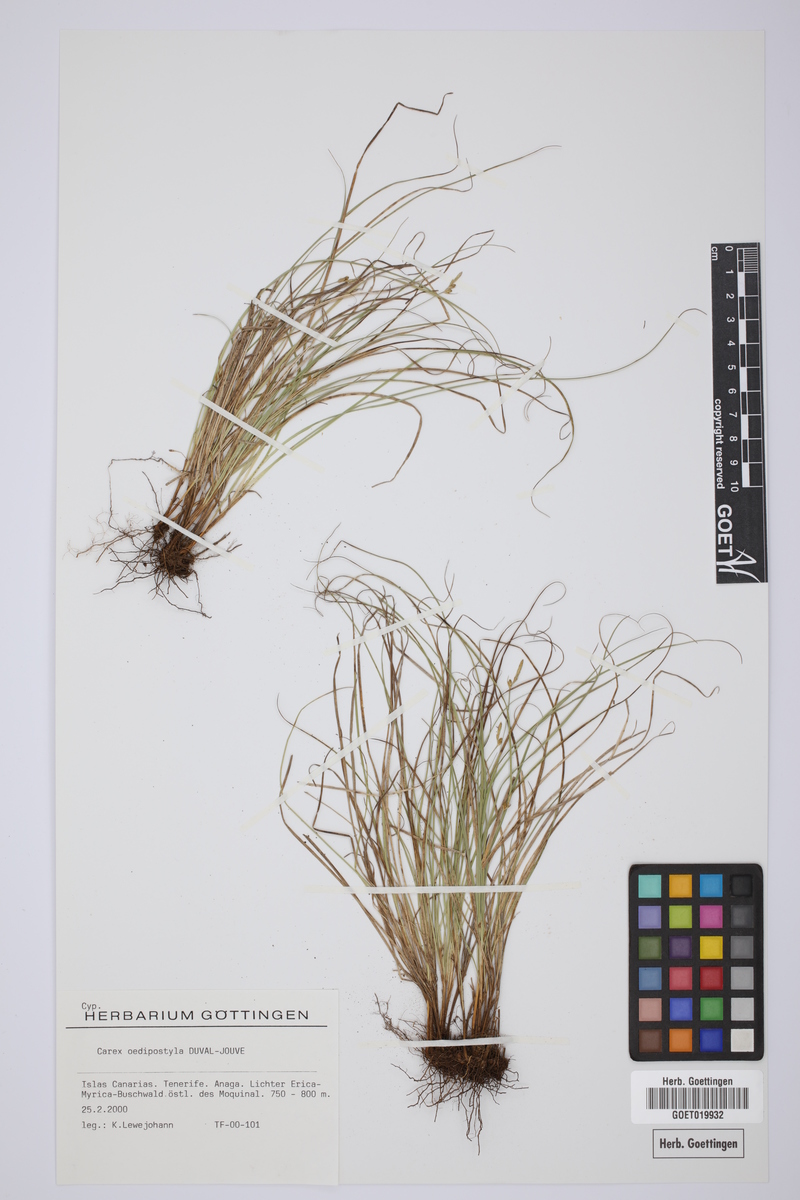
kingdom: Plantae
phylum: Tracheophyta
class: Liliopsida
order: Poales
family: Cyperaceae
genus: Carex
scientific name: Carex oedipostyla
